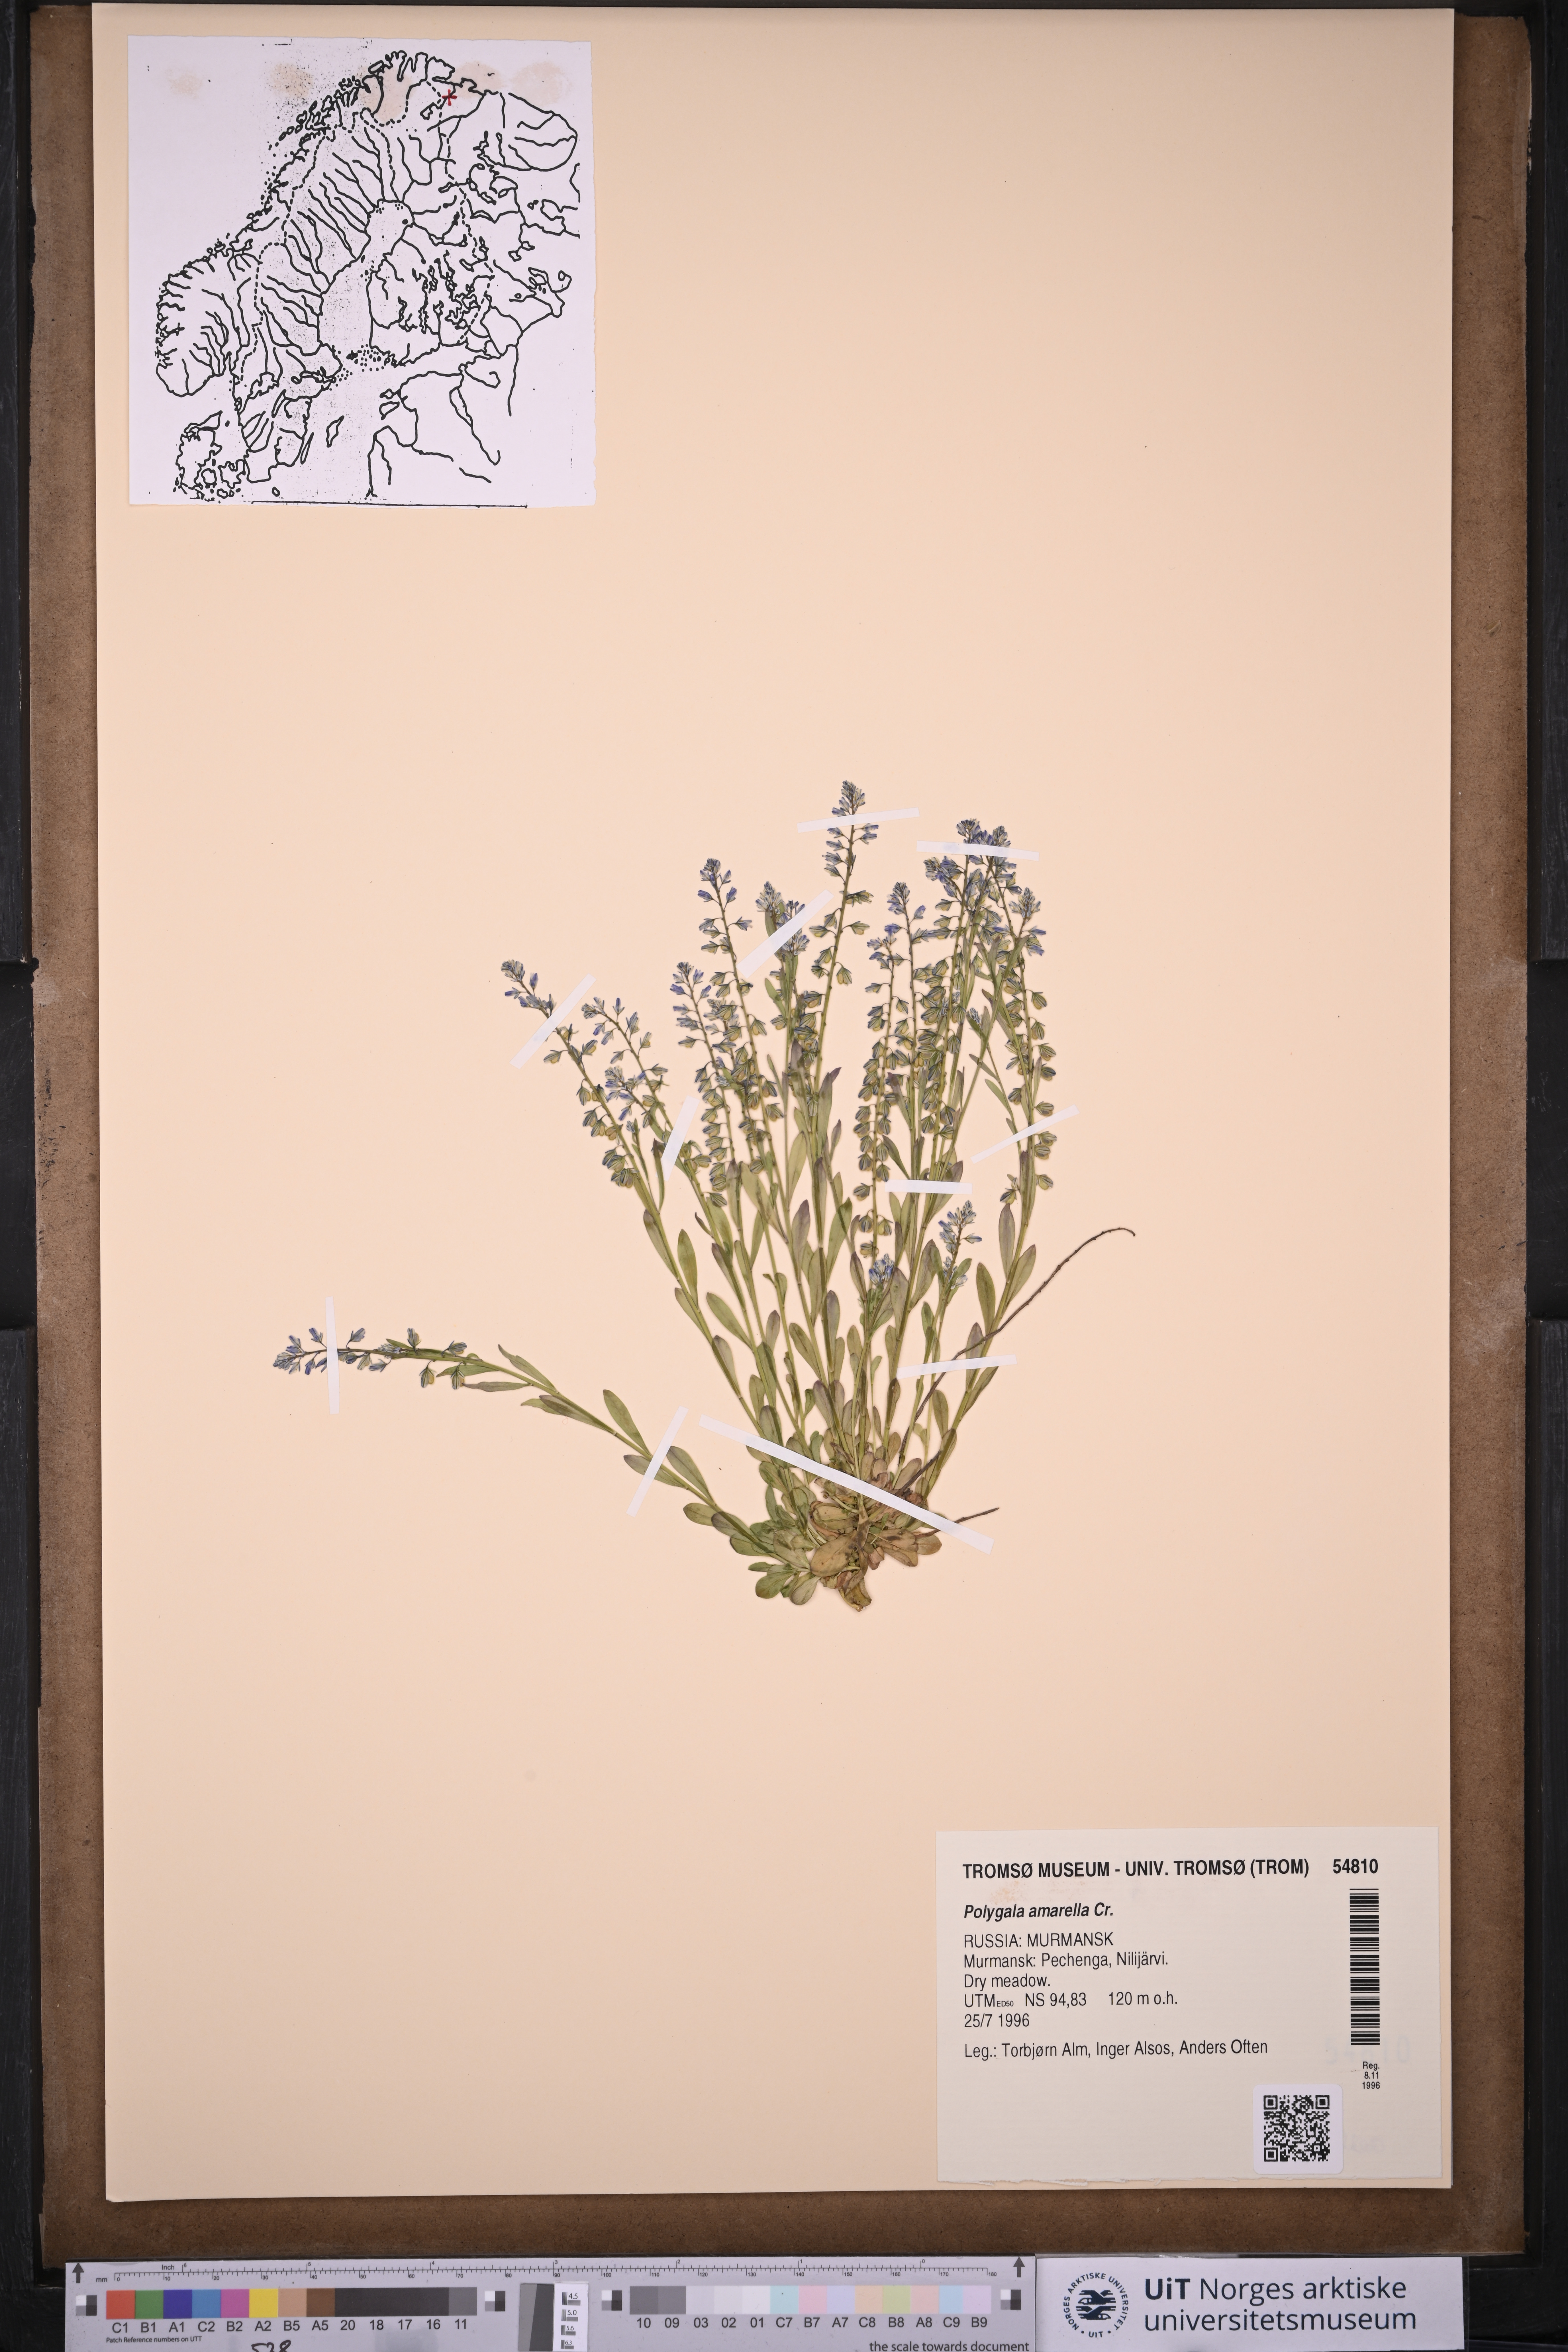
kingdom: Plantae
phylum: Tracheophyta
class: Magnoliopsida
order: Fabales
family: Polygalaceae
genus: Polygala
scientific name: Polygala amarella
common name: Dwarf milkwort
